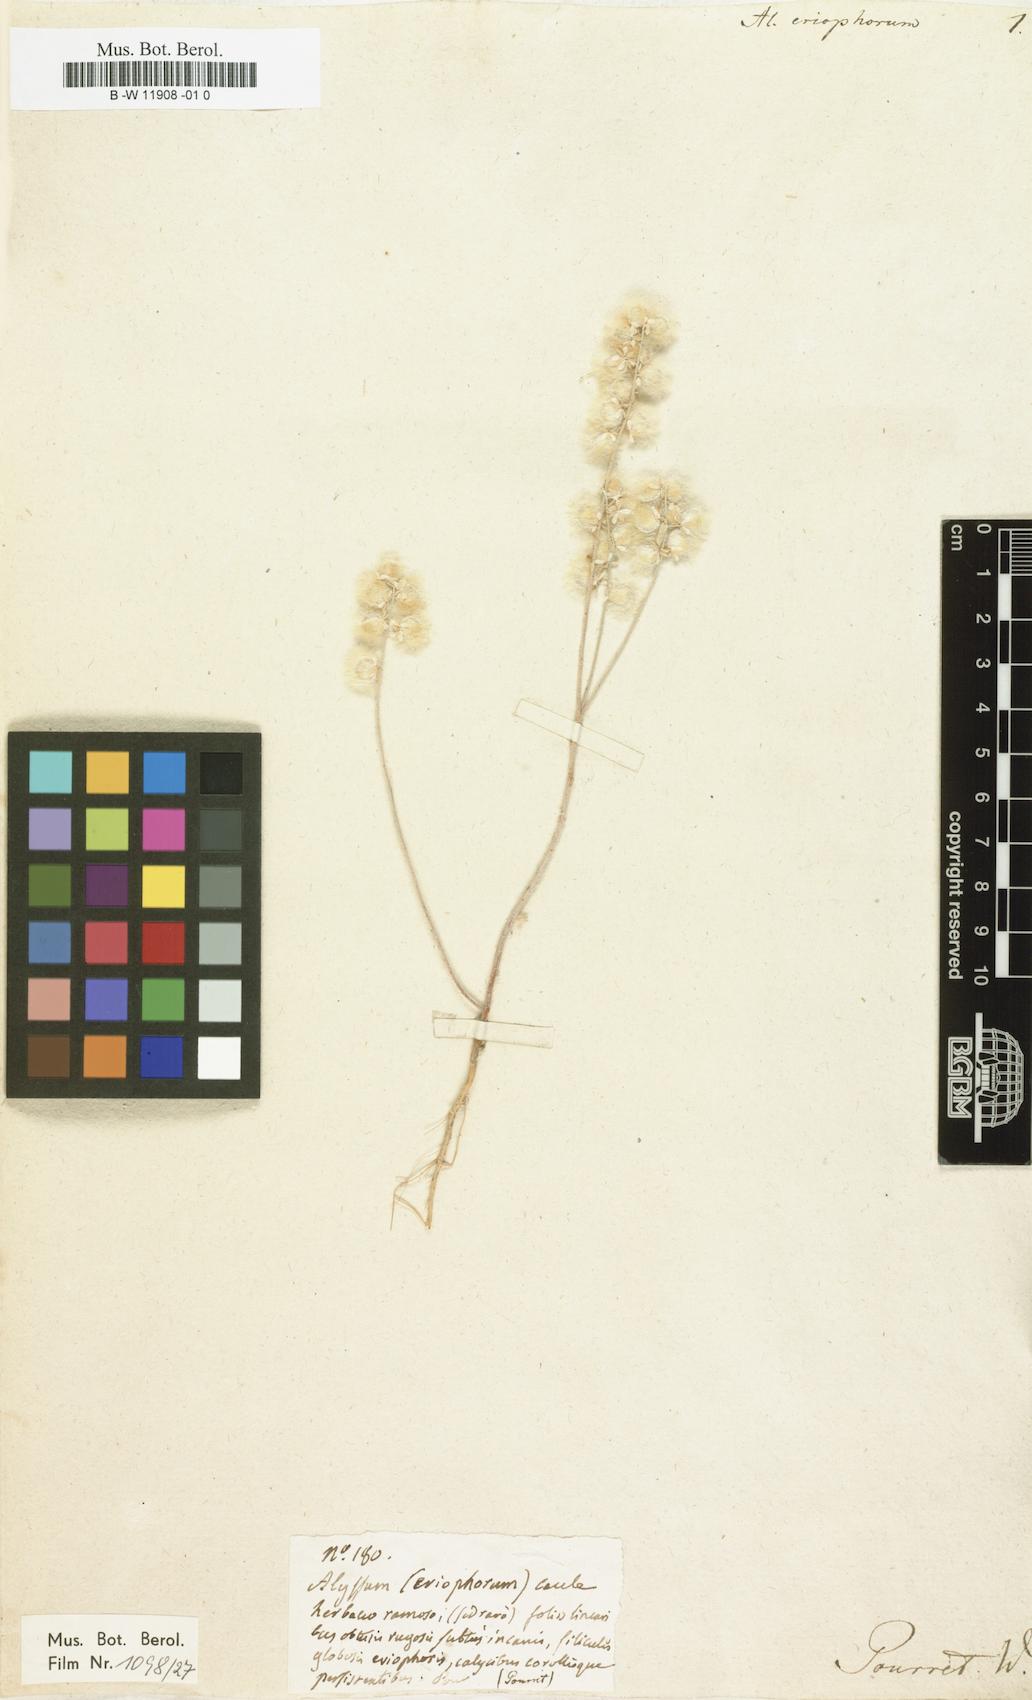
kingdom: Plantae
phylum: Tracheophyta
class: Magnoliopsida
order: Brassicales
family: Brassicaceae
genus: Clypeola
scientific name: Clypeola eriocarpa
